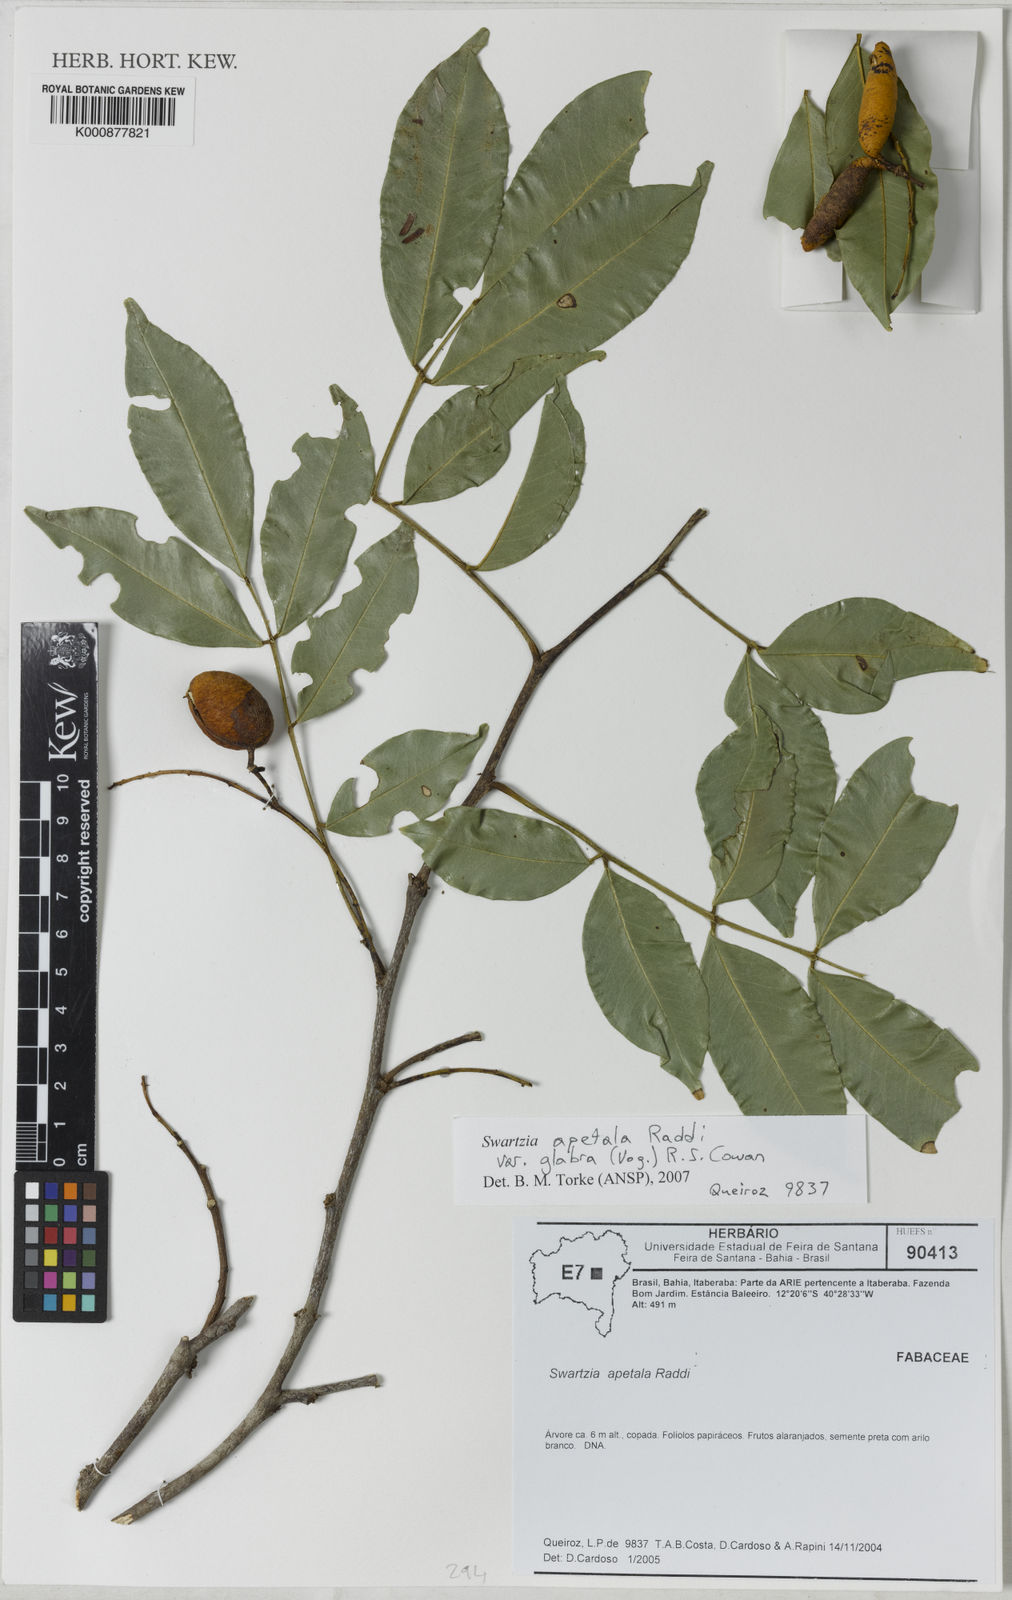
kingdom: Plantae
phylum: Tracheophyta
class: Magnoliopsida
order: Fabales
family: Fabaceae
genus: Swartzia
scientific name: Swartzia apetala
